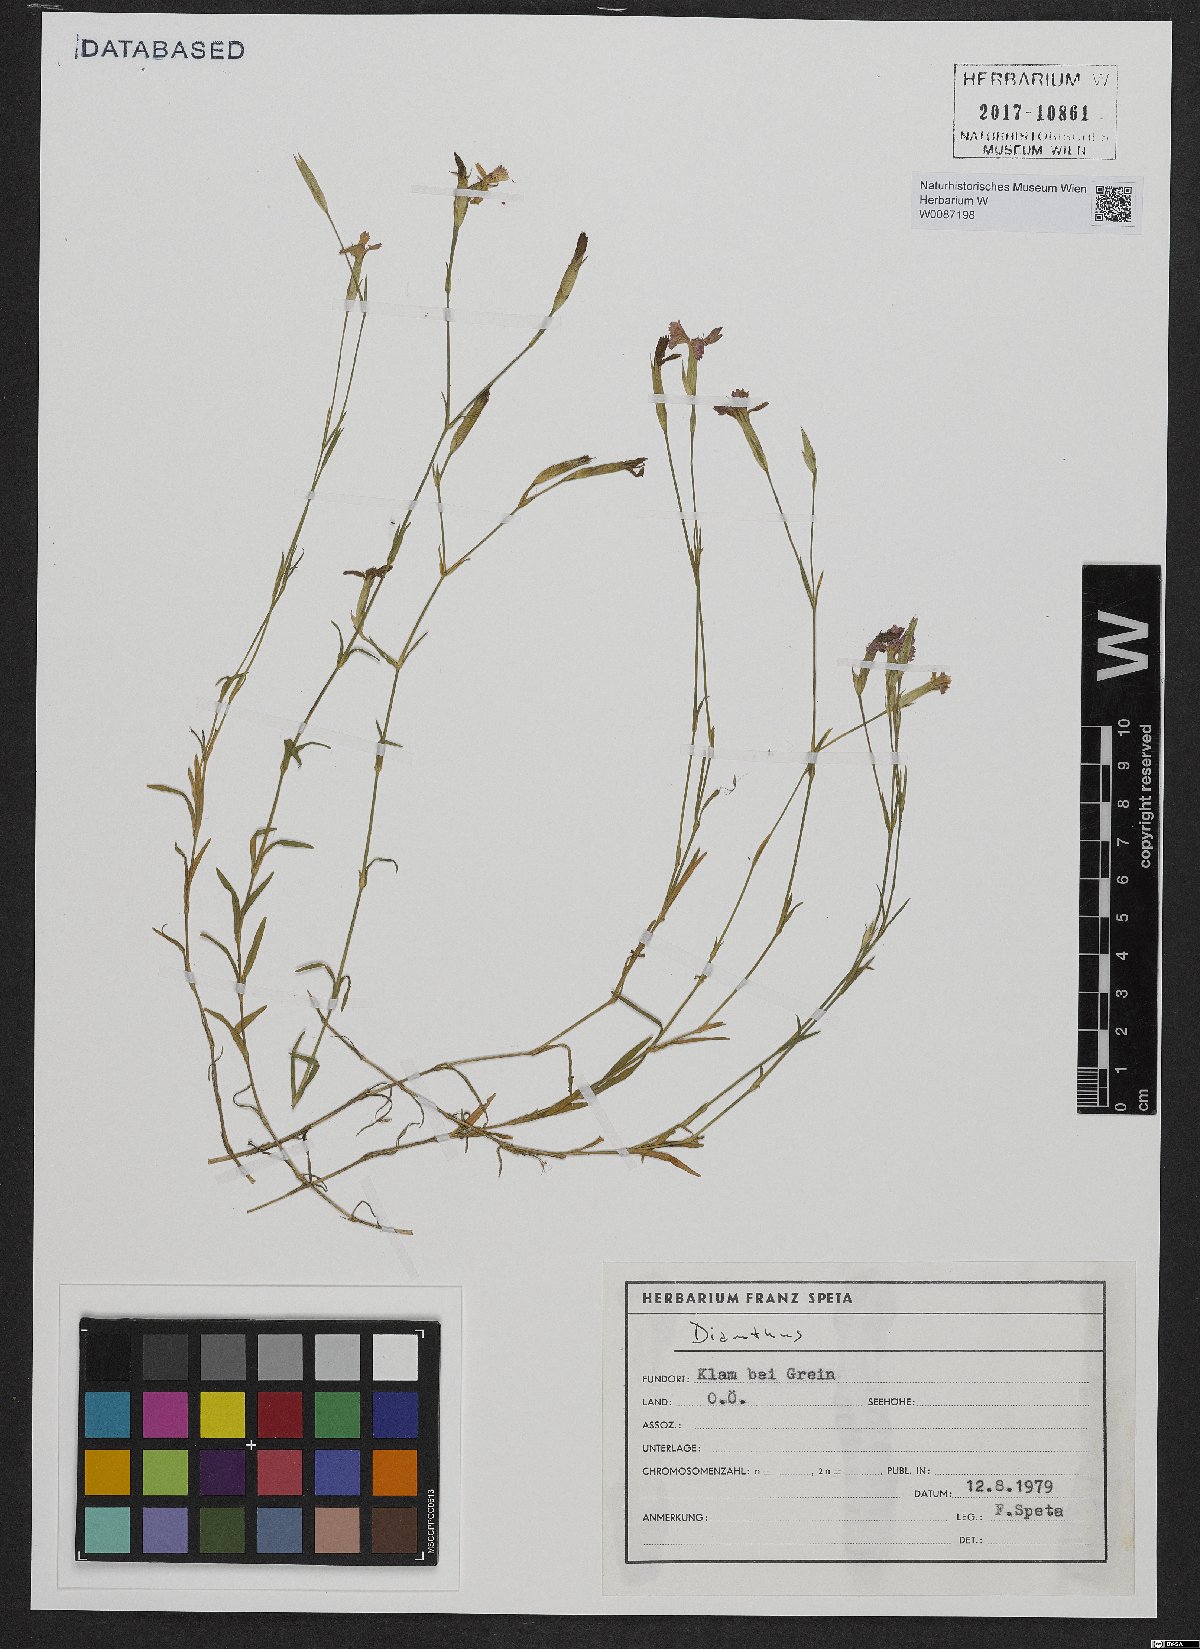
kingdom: Plantae
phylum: Tracheophyta
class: Magnoliopsida
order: Caryophyllales
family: Caryophyllaceae
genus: Dianthus
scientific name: Dianthus deltoides
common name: Maiden pink
